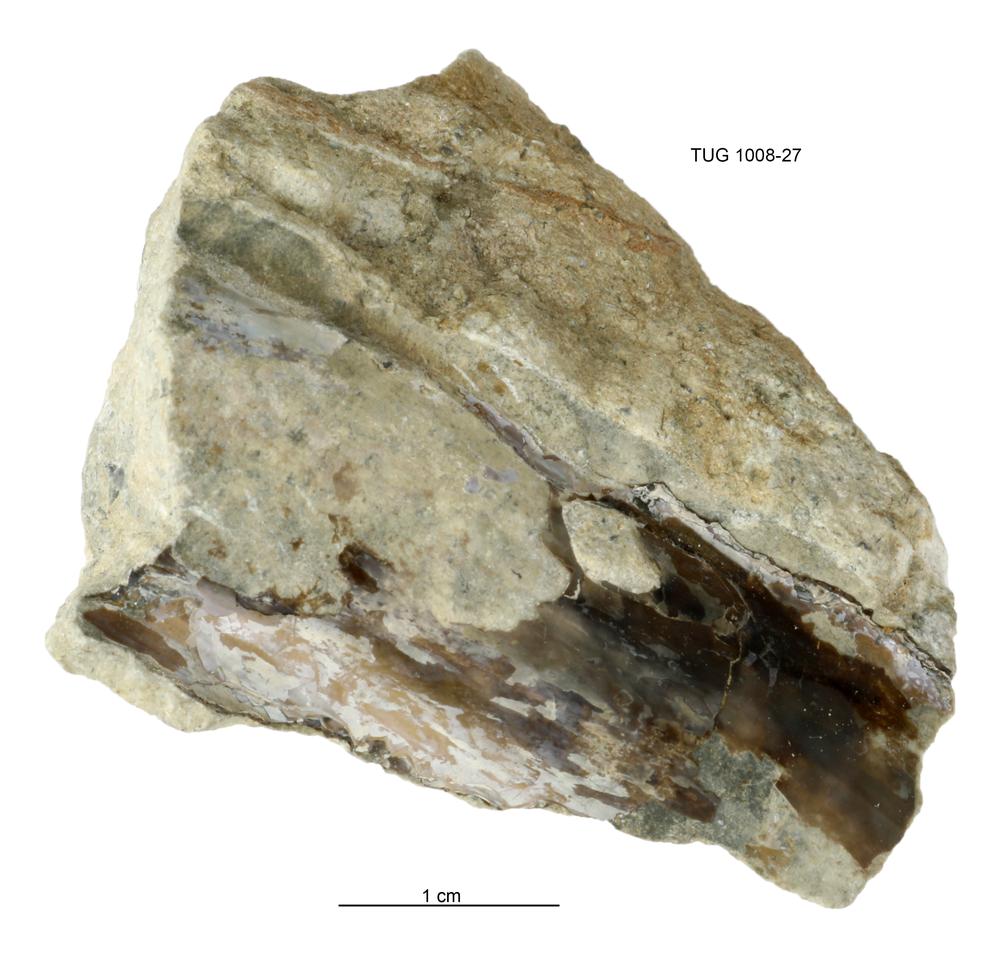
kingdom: Animalia
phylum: Cnidaria
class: Scyphozoa
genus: Sphenothallus
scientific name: Sphenothallus
